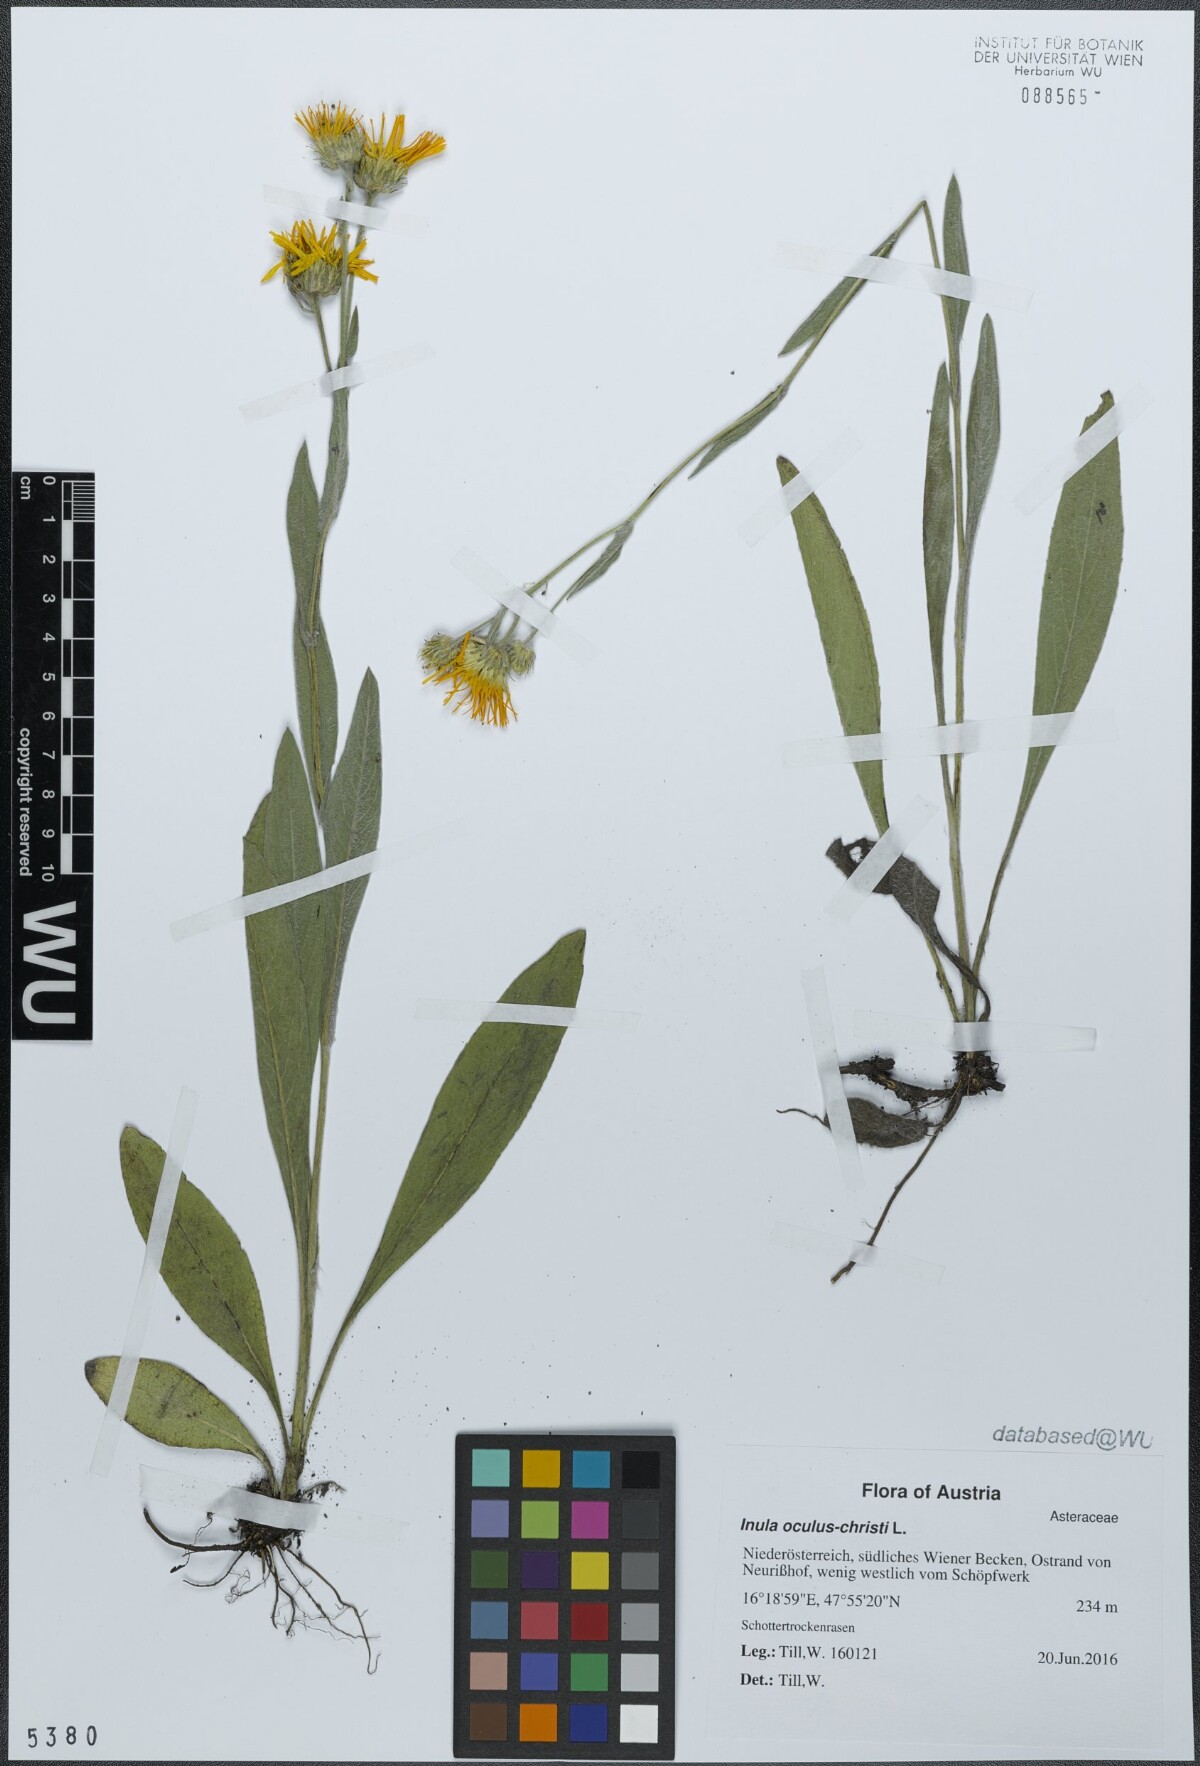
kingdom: Plantae
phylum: Tracheophyta
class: Magnoliopsida
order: Asterales
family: Asteraceae
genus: Pentanema
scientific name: Pentanema oculus-christi
